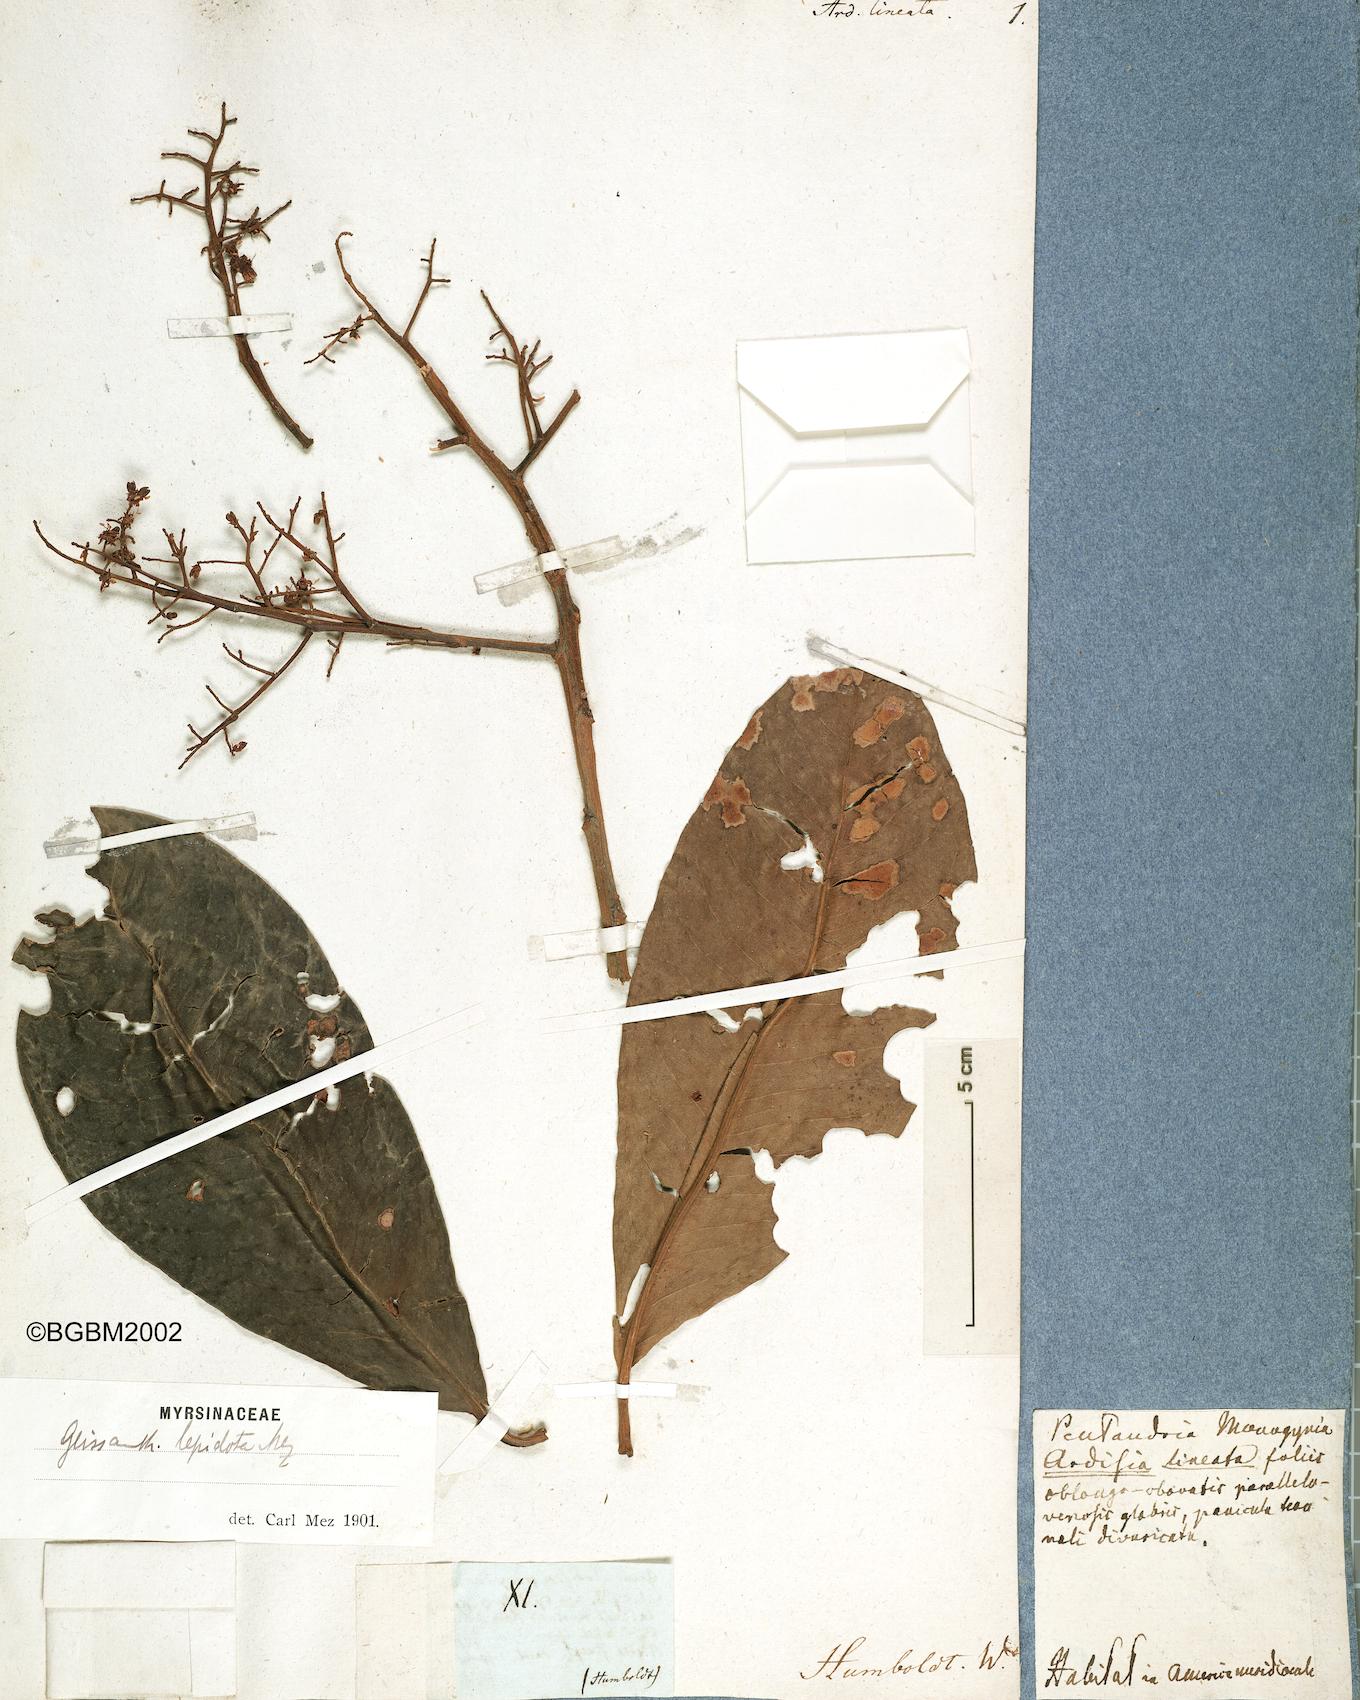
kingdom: Plantae
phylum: Tracheophyta
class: Magnoliopsida
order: Ericales
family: Primulaceae
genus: Geissanthus
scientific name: Geissanthus lepidotus
